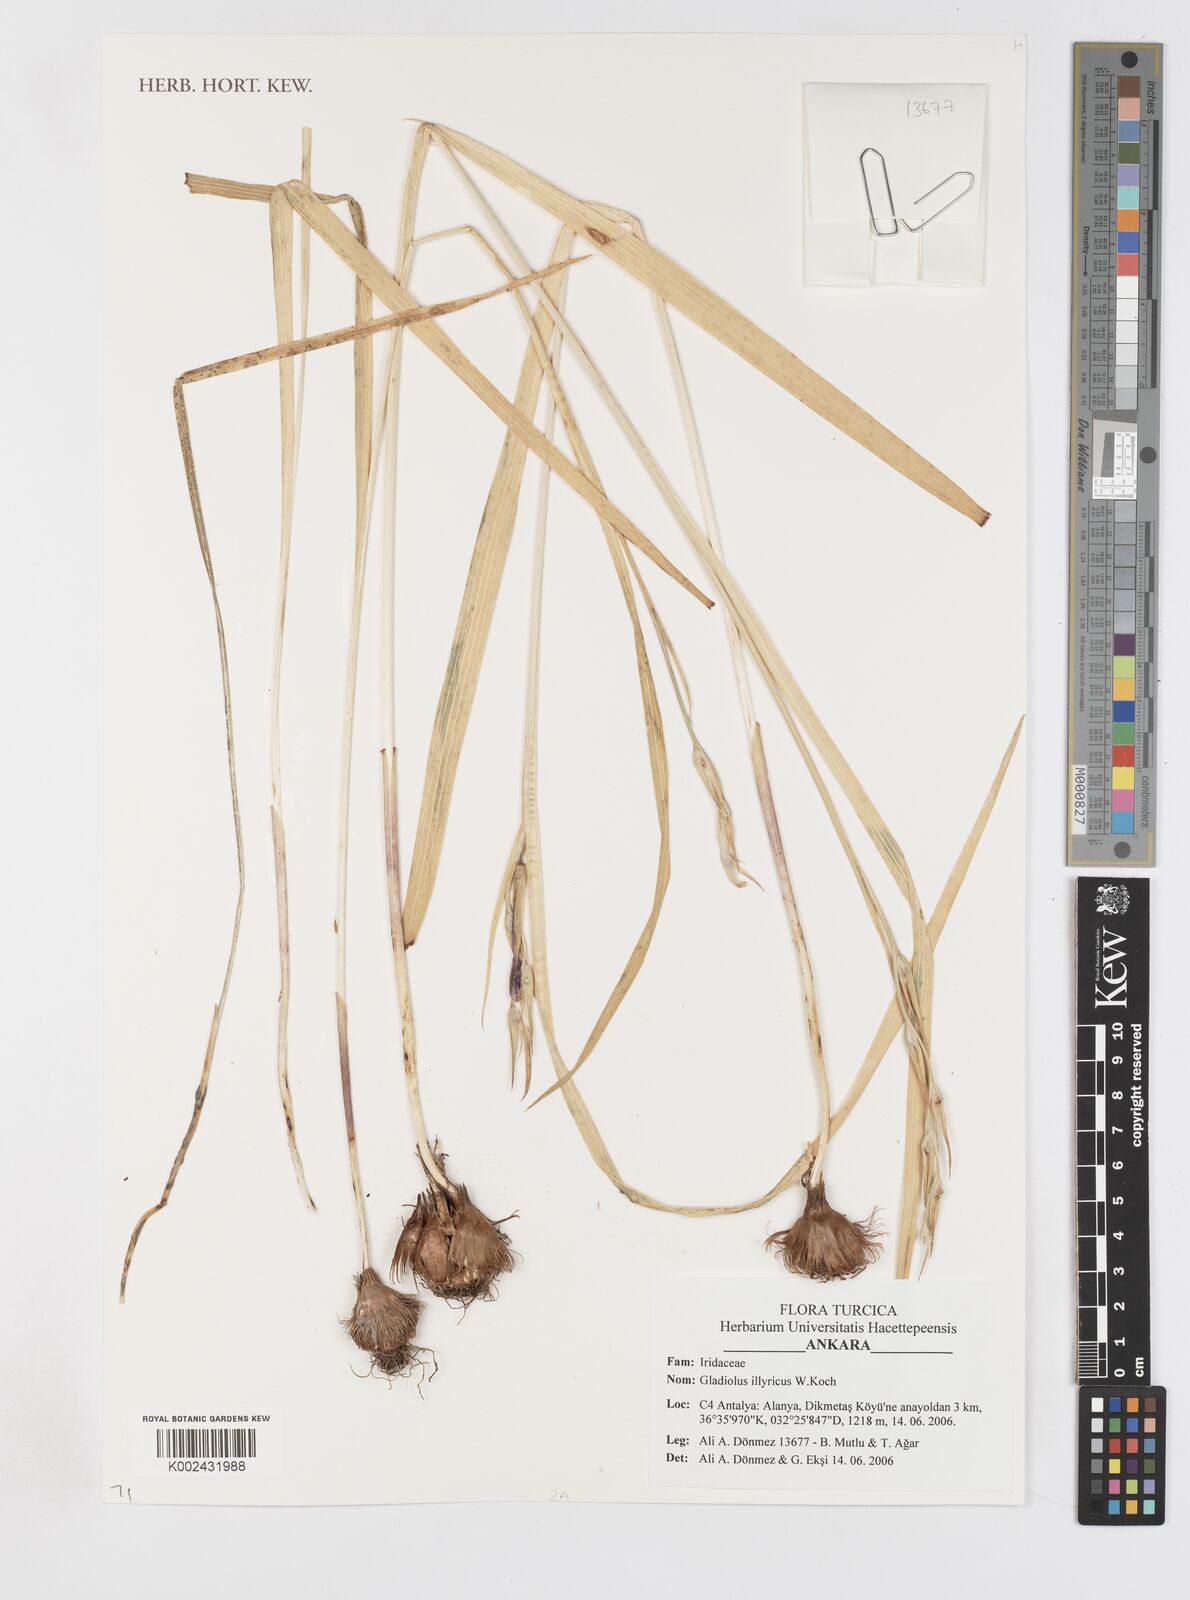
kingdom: Plantae
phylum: Tracheophyta
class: Liliopsida
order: Asparagales
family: Iridaceae
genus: Gladiolus
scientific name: Gladiolus illyricus
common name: Wild gladiolus
